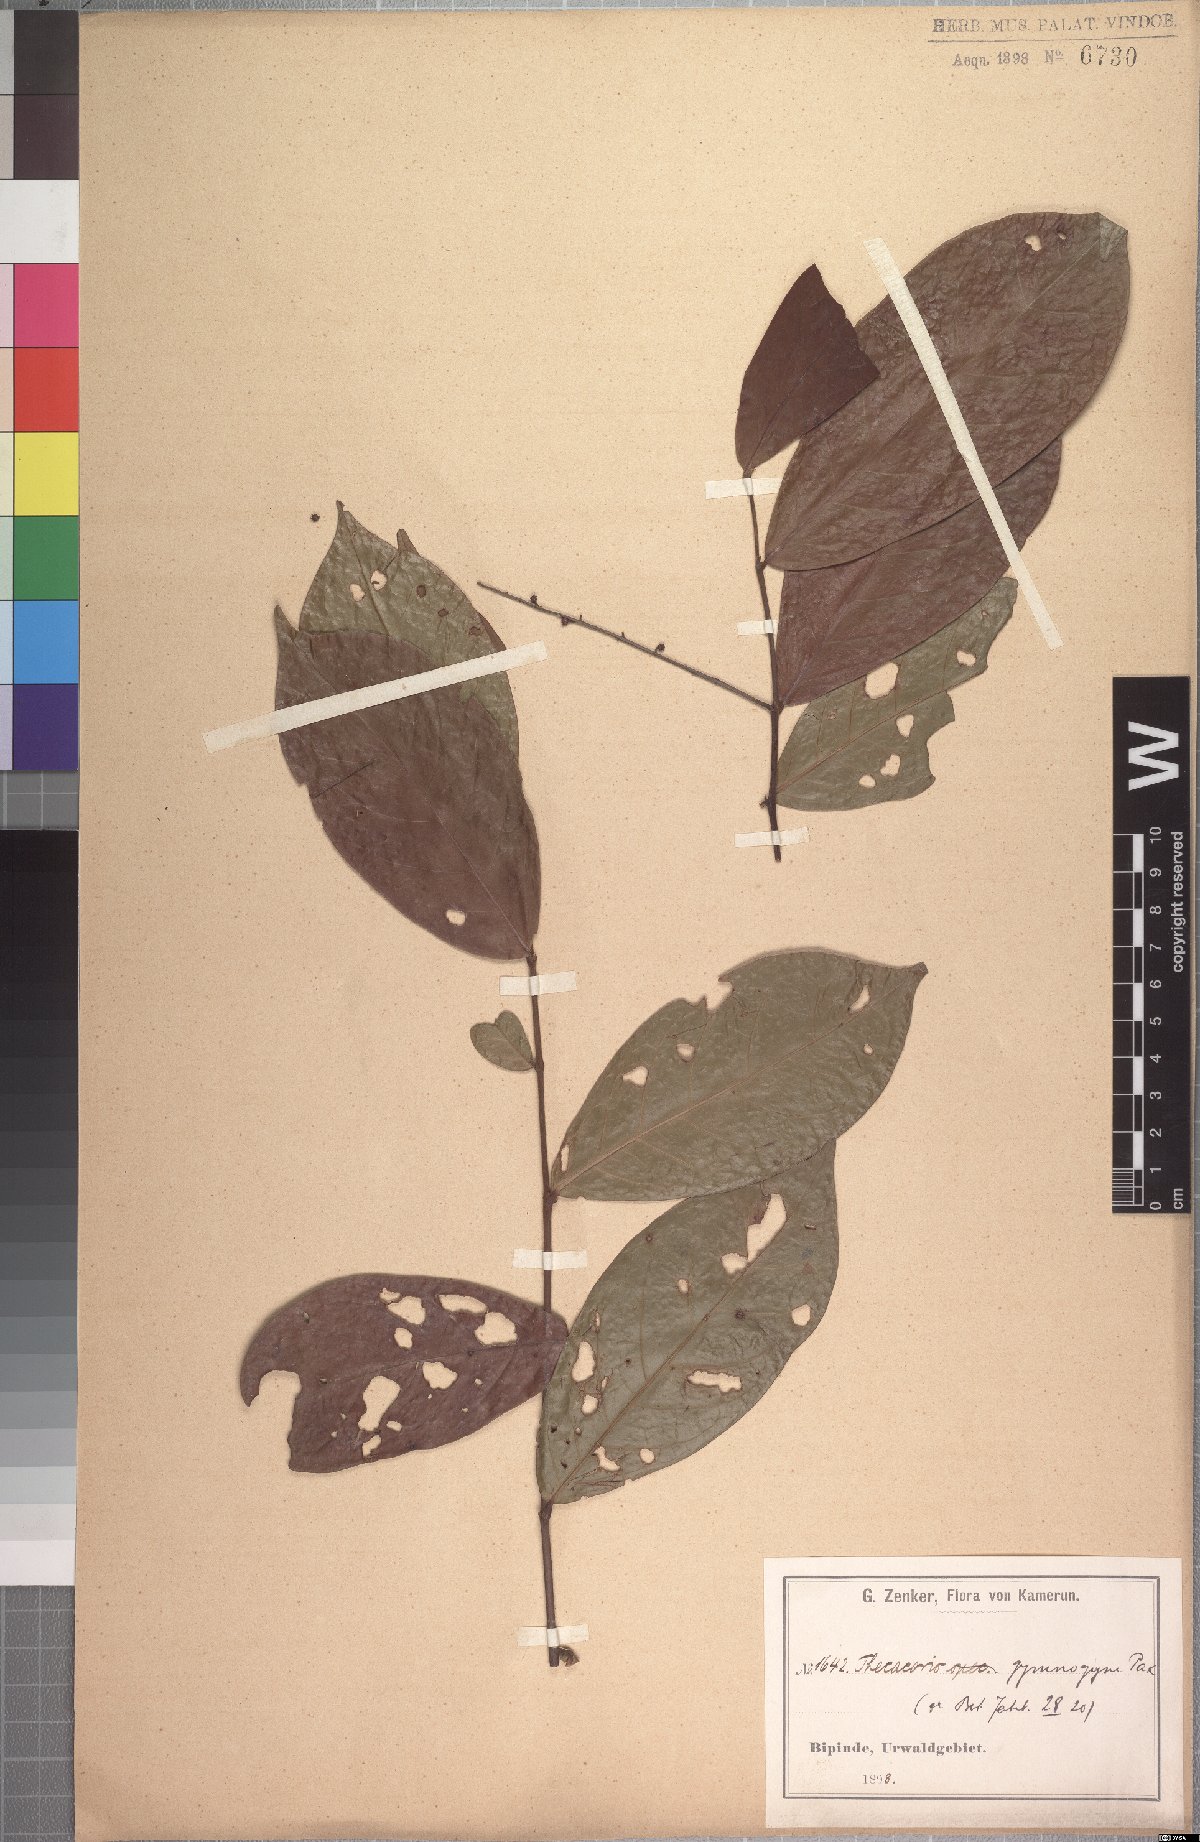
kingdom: Plantae
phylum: Tracheophyta
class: Magnoliopsida
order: Malpighiales
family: Phyllanthaceae
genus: Thecacoris
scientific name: Thecacoris leptobotrya
